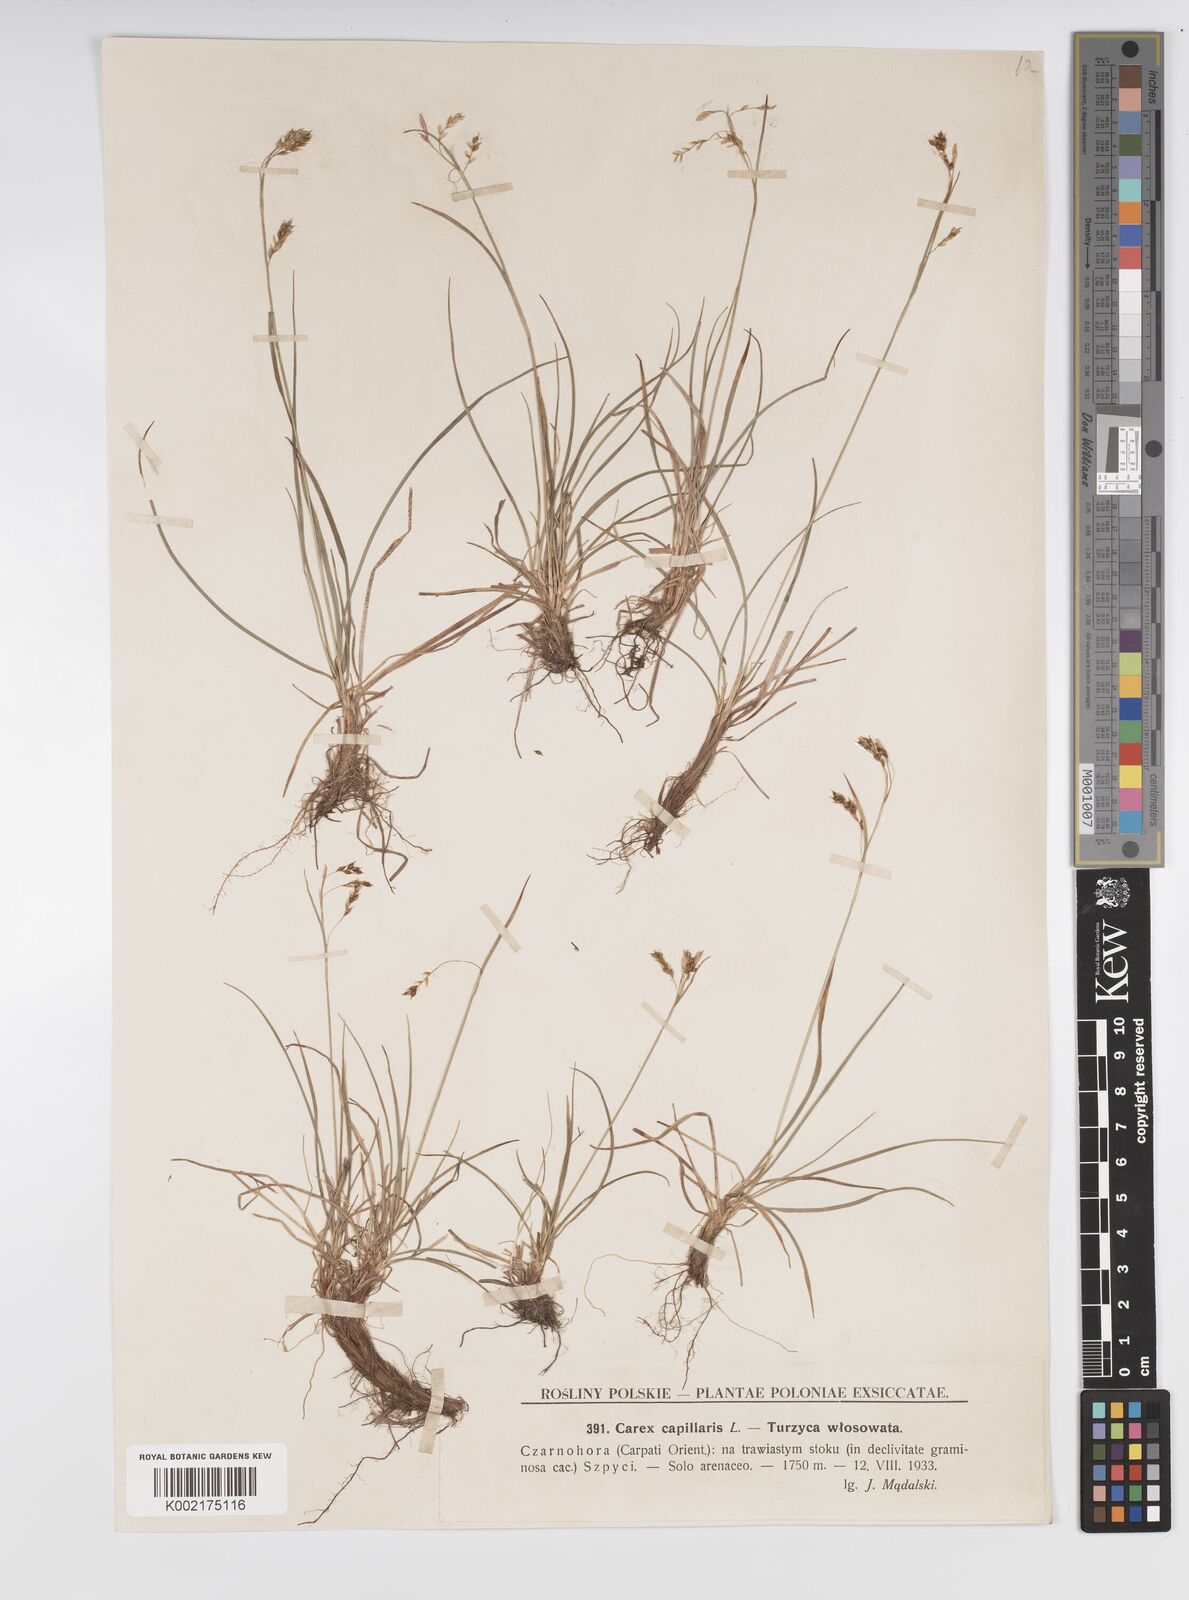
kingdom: Plantae
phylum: Tracheophyta
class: Liliopsida
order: Poales
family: Cyperaceae
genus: Carex
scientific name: Carex capillaris
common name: Hair sedge
